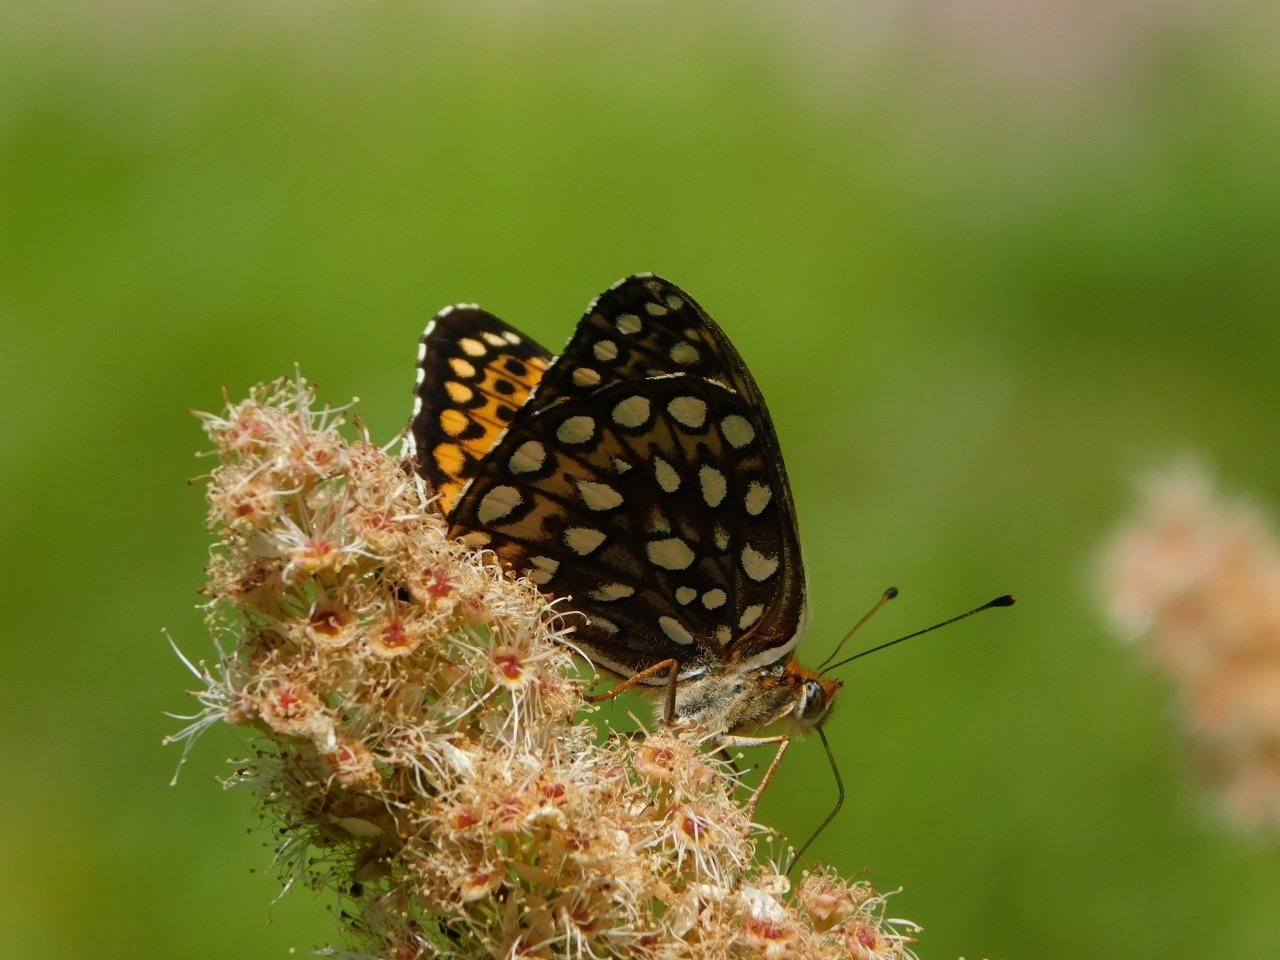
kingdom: Animalia
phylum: Arthropoda
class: Insecta
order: Lepidoptera
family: Nymphalidae
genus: Speyeria
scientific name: Speyeria atlantis
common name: Atlantis Fritillary
